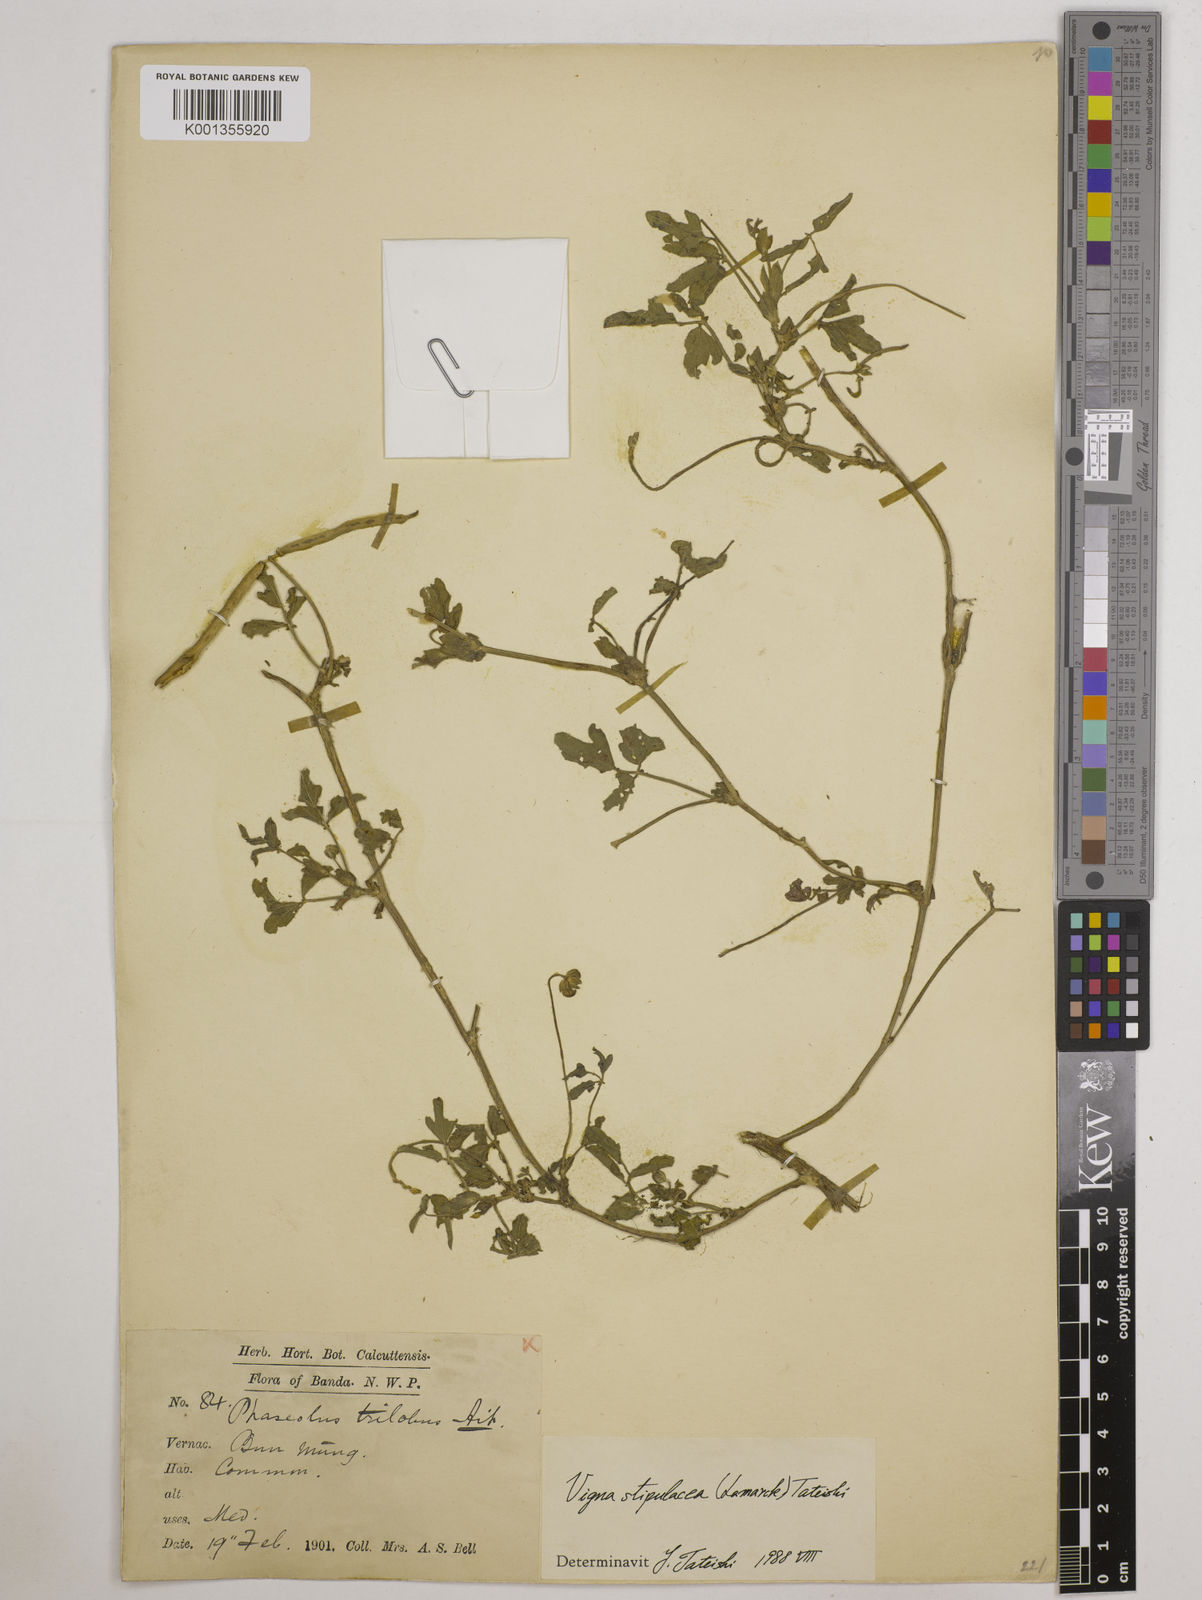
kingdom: Plantae
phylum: Tracheophyta
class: Magnoliopsida
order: Fabales
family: Fabaceae
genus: Pueraria
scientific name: Pueraria montana
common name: Kudzu
